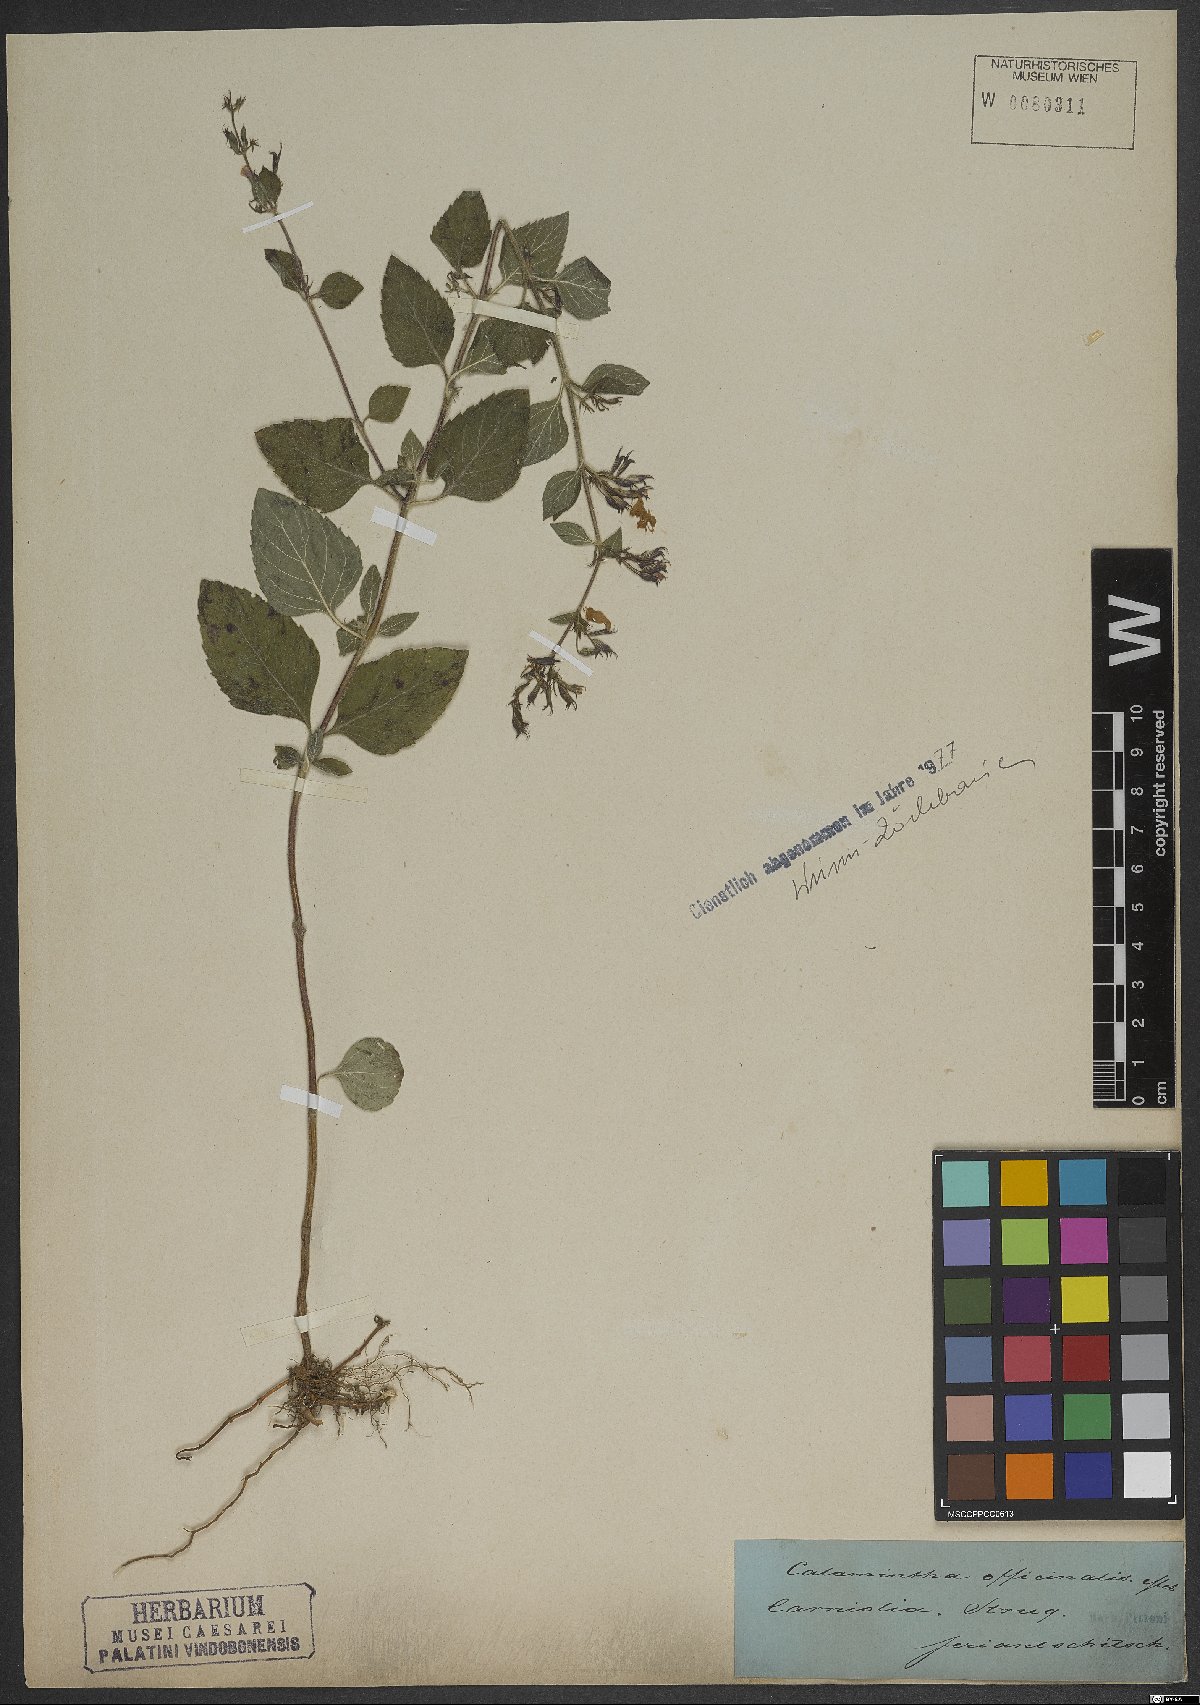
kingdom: Plantae
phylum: Tracheophyta
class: Magnoliopsida
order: Lamiales
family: Lamiaceae
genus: Clinopodium
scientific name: Clinopodium nepeta
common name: Lesser calamint
